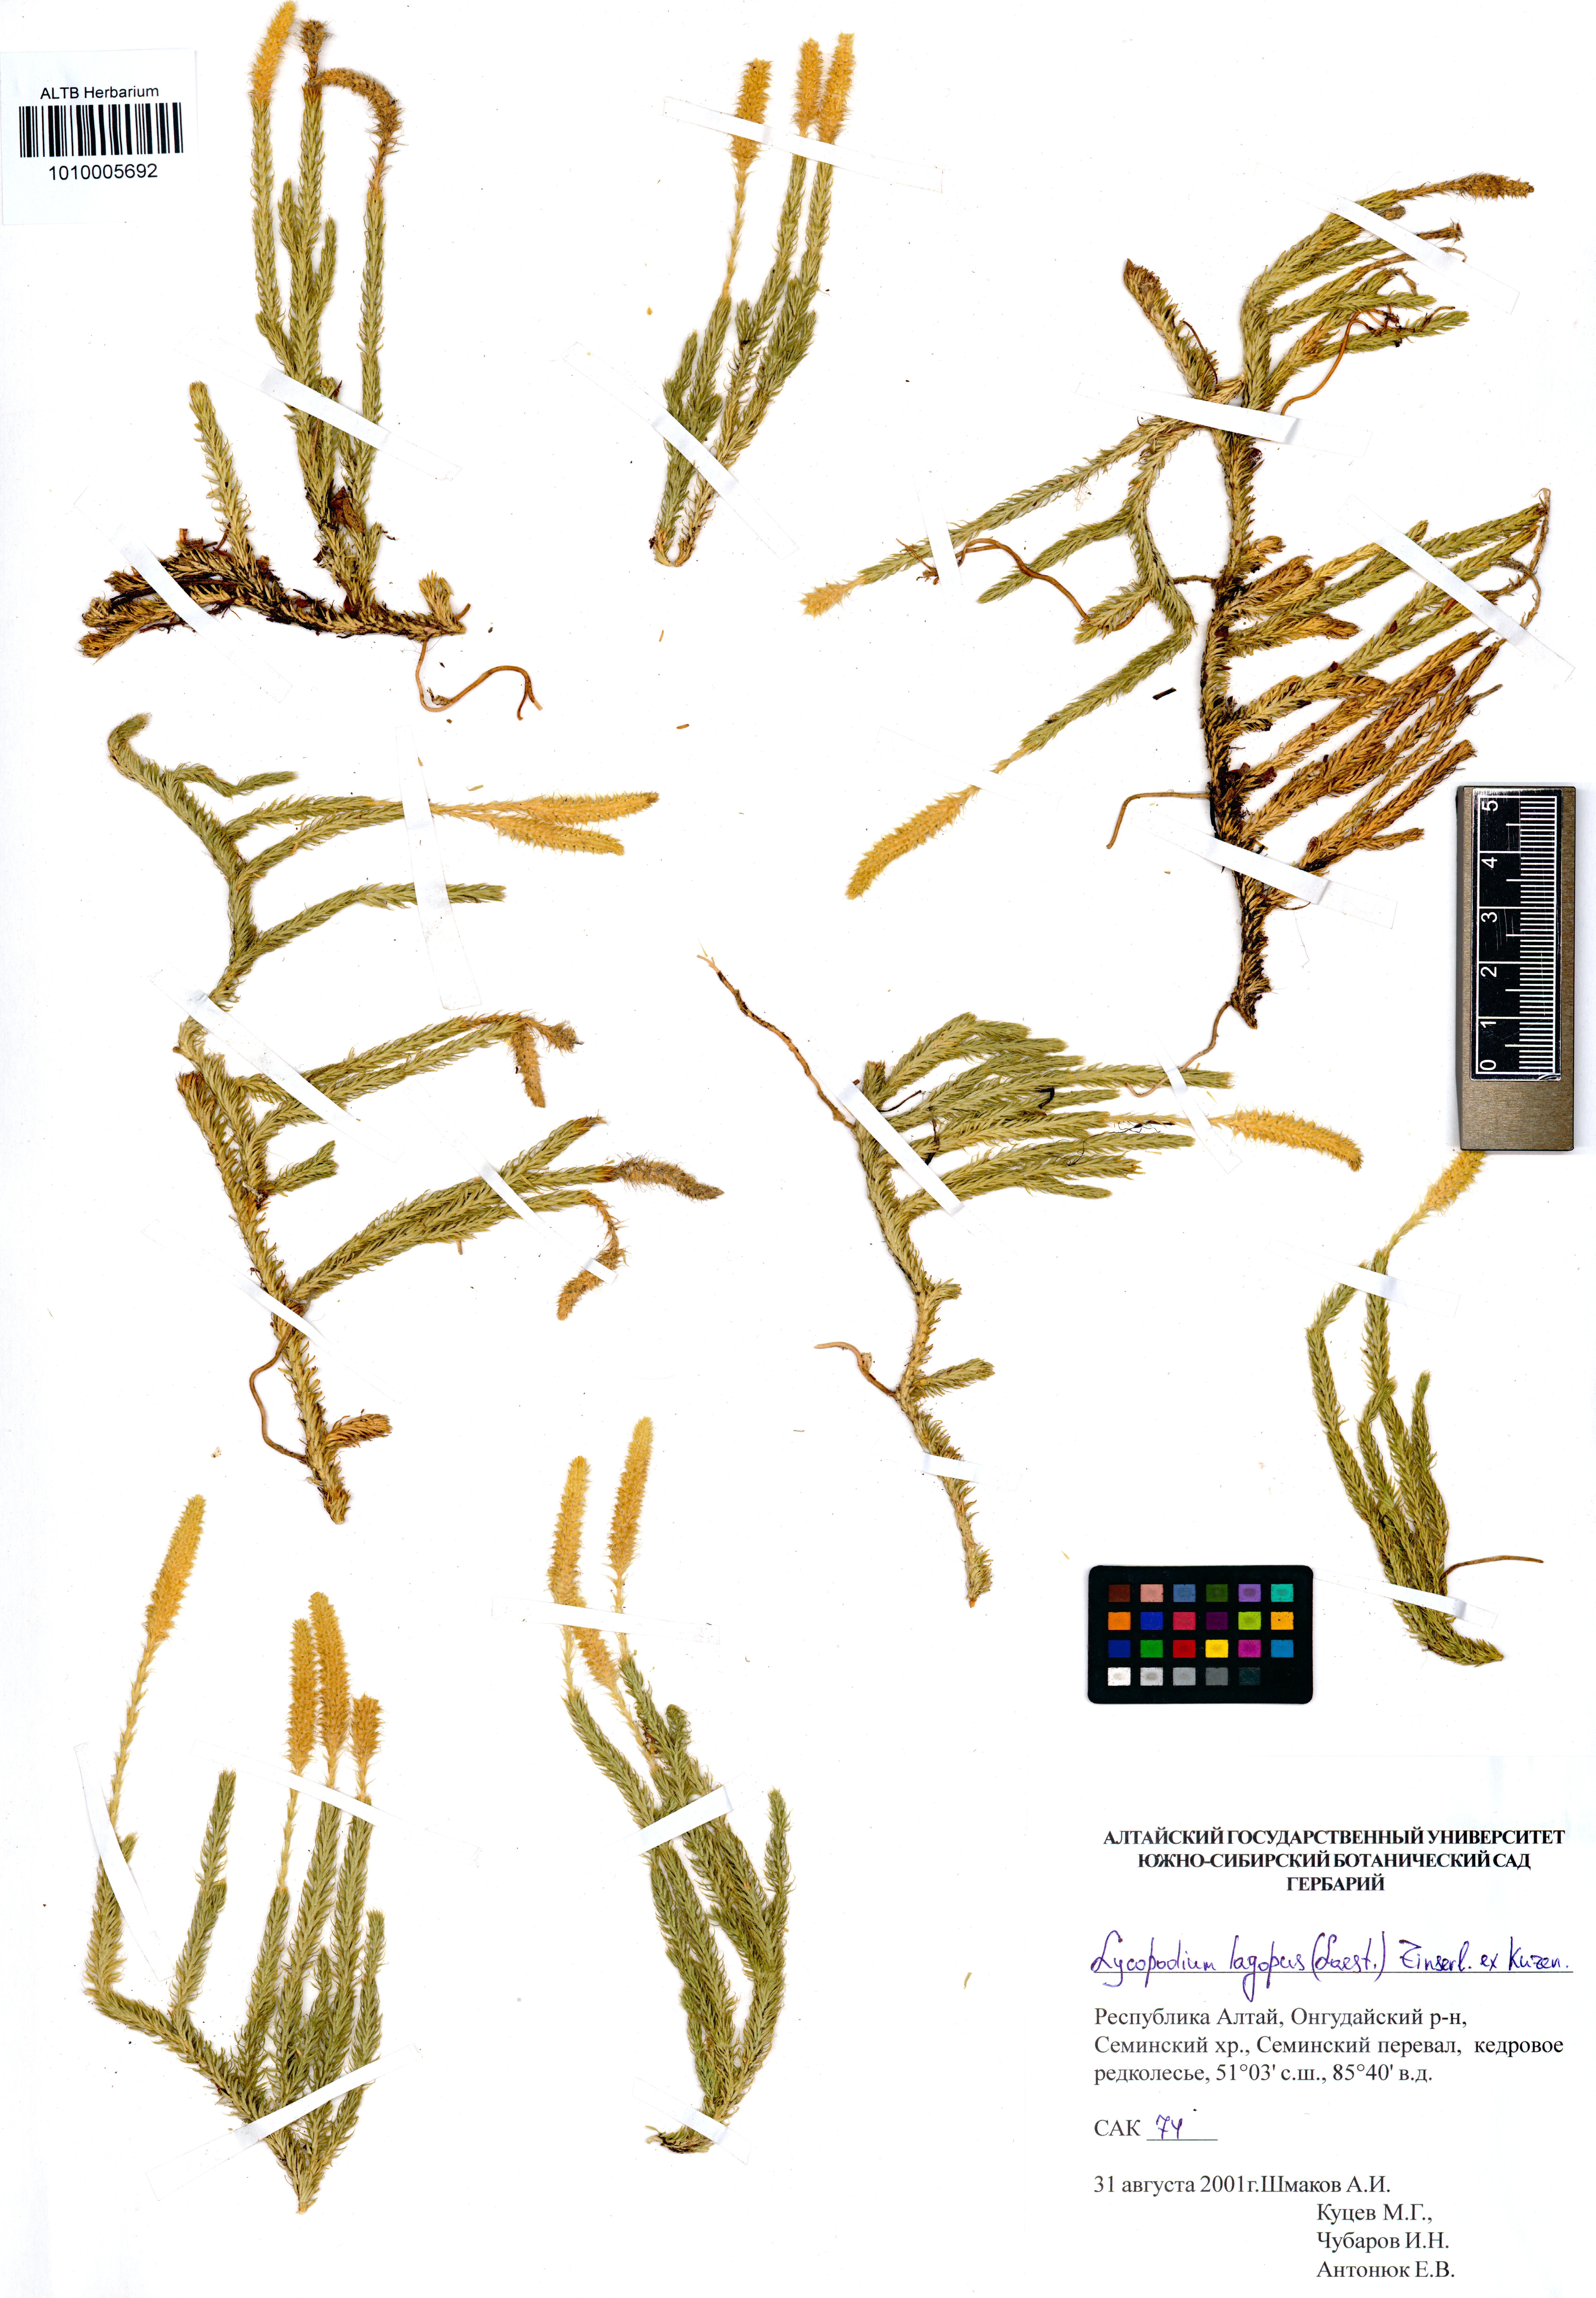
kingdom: Plantae
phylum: Tracheophyta
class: Lycopodiopsida
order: Lycopodiales
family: Lycopodiaceae
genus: Lycopodium
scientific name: Lycopodium lagopus
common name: One-cone clubmoss
